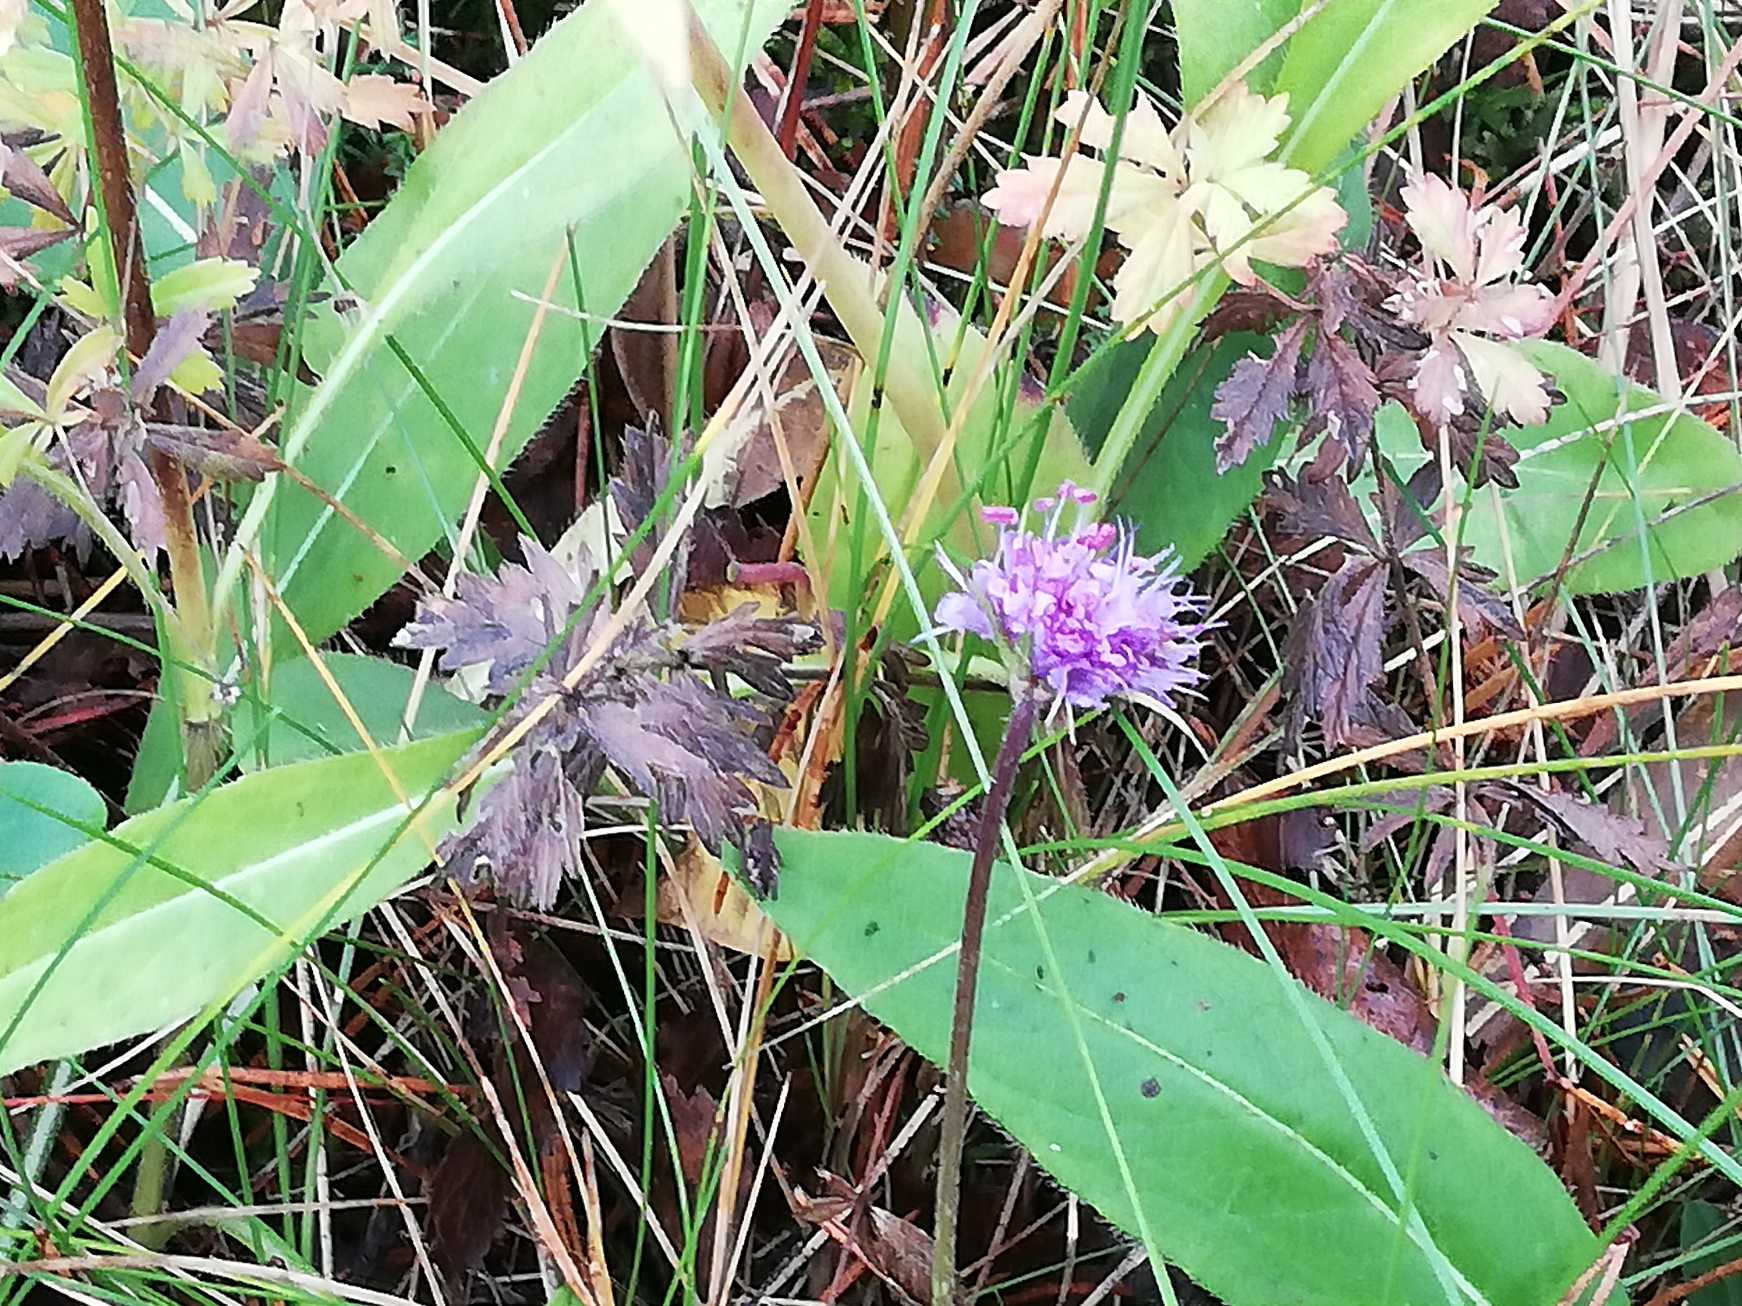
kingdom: Plantae
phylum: Tracheophyta
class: Magnoliopsida
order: Dipsacales
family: Caprifoliaceae
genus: Succisa
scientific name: Succisa pratensis
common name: Djævelsbid
